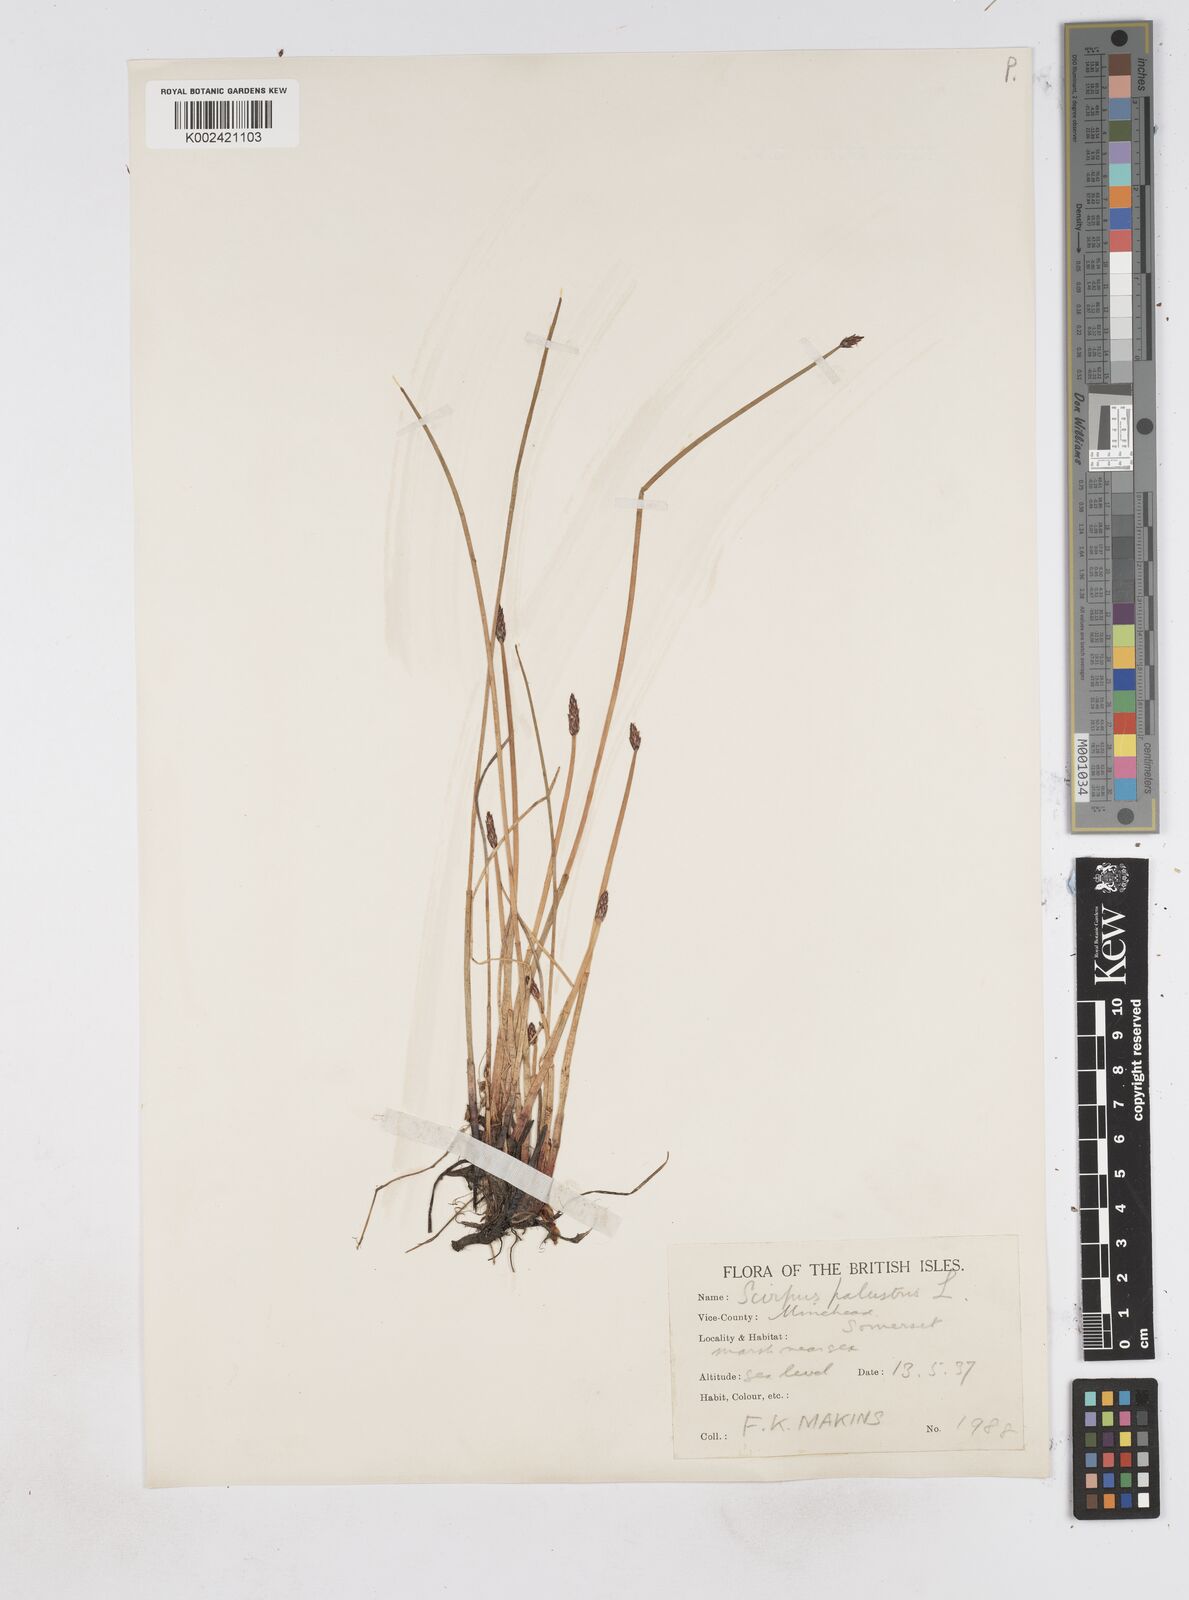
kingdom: Plantae
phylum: Tracheophyta
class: Liliopsida
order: Poales
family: Cyperaceae
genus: Eleocharis
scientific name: Eleocharis palustris
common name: Common spike-rush
